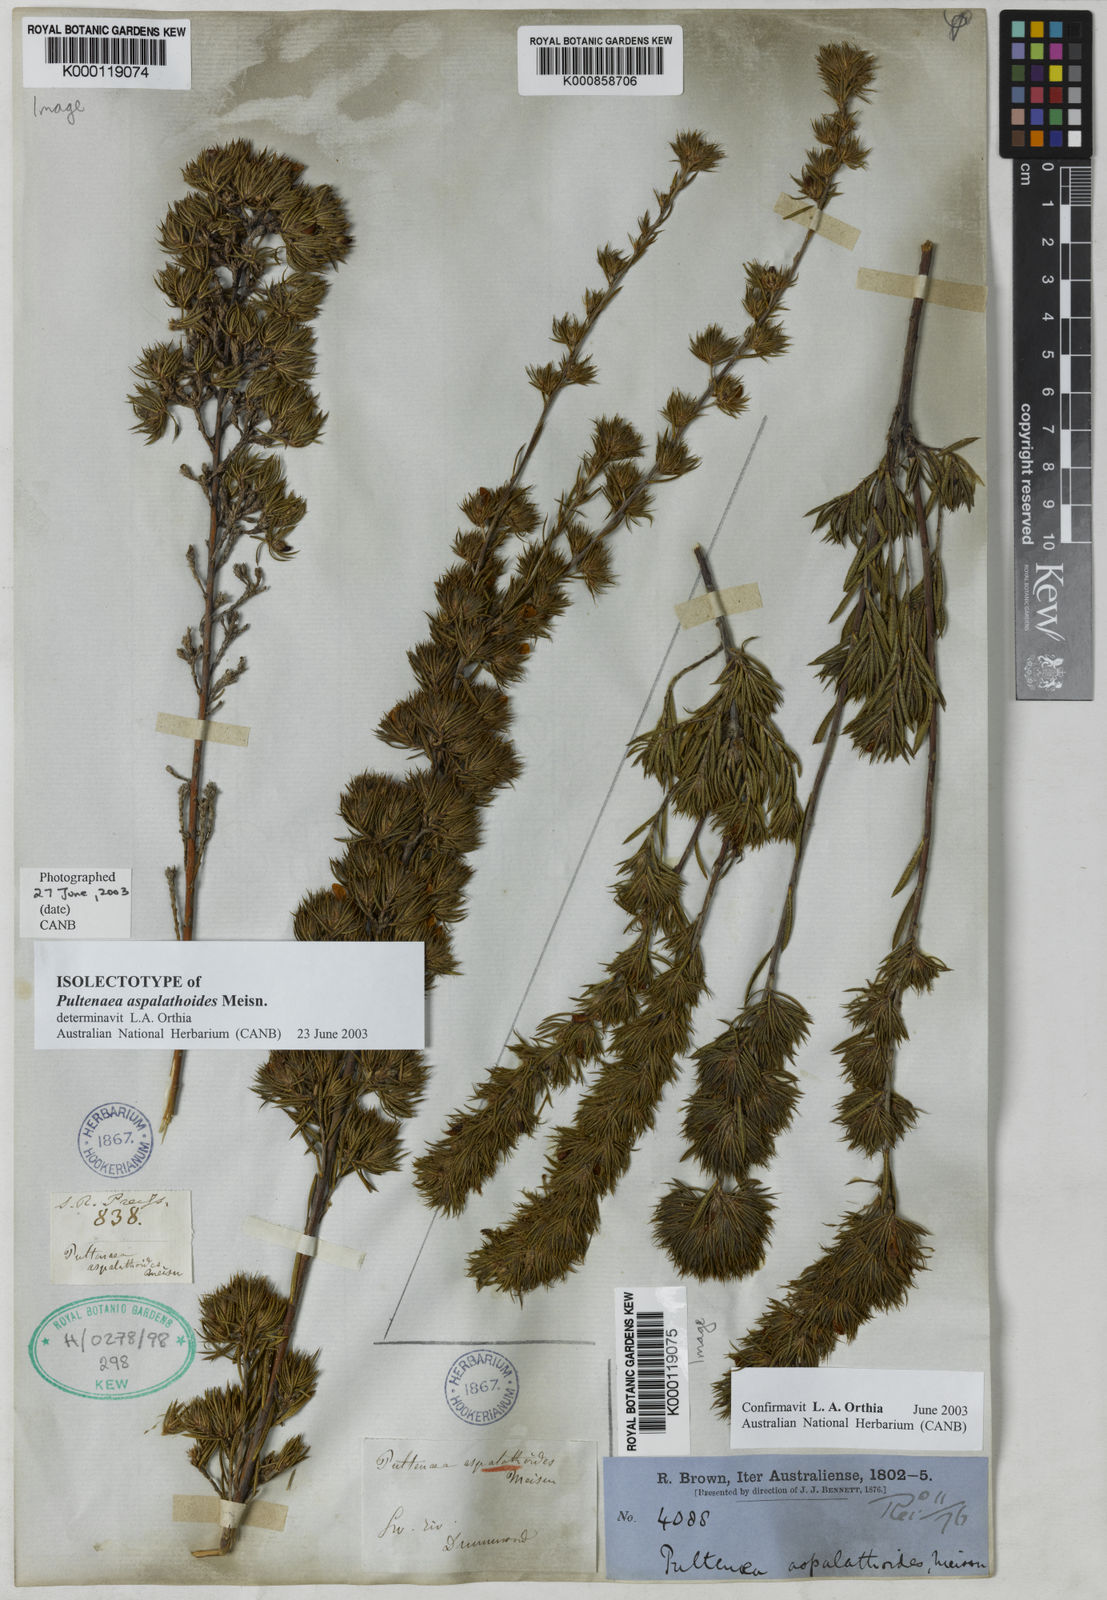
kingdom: Plantae
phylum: Tracheophyta
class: Magnoliopsida
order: Fabales
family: Fabaceae
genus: Pultenaea
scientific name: Pultenaea aspalathoides
